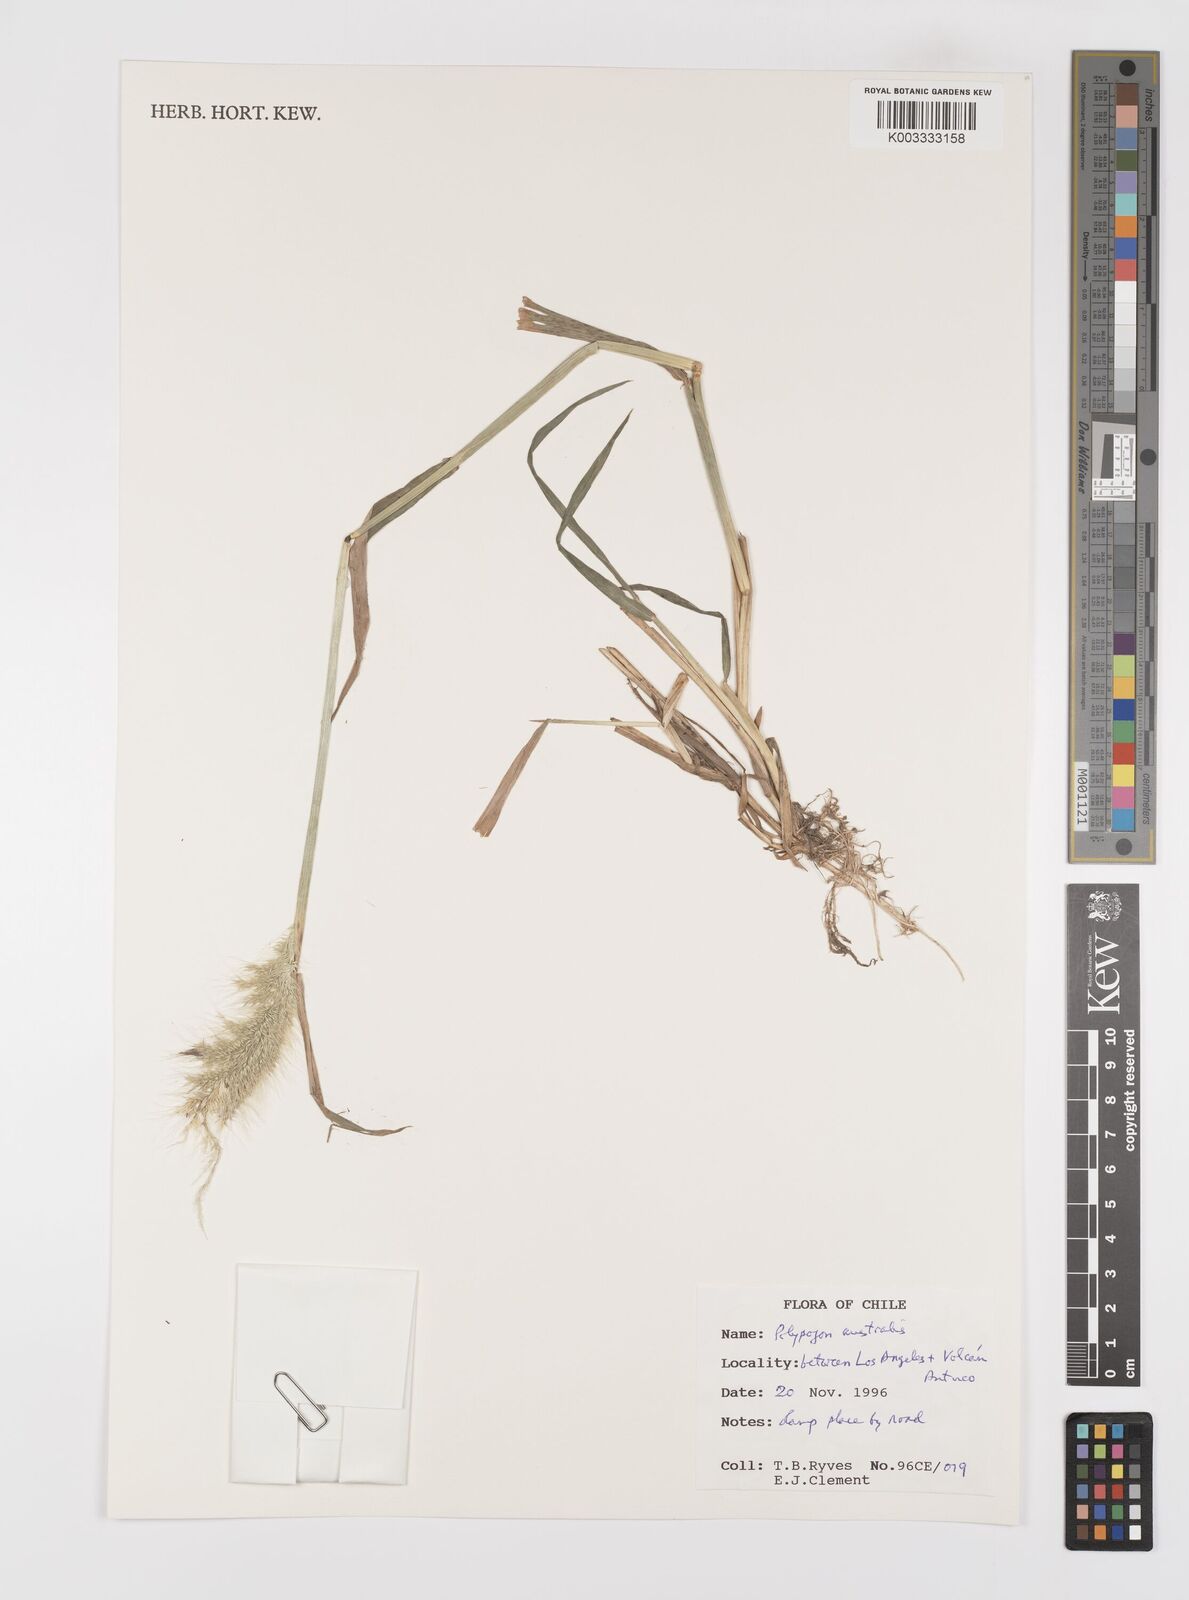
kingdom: Plantae
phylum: Tracheophyta
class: Liliopsida
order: Poales
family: Poaceae
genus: Polypogon
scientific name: Polypogon australis
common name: Chilean rabbitsfoot grass
